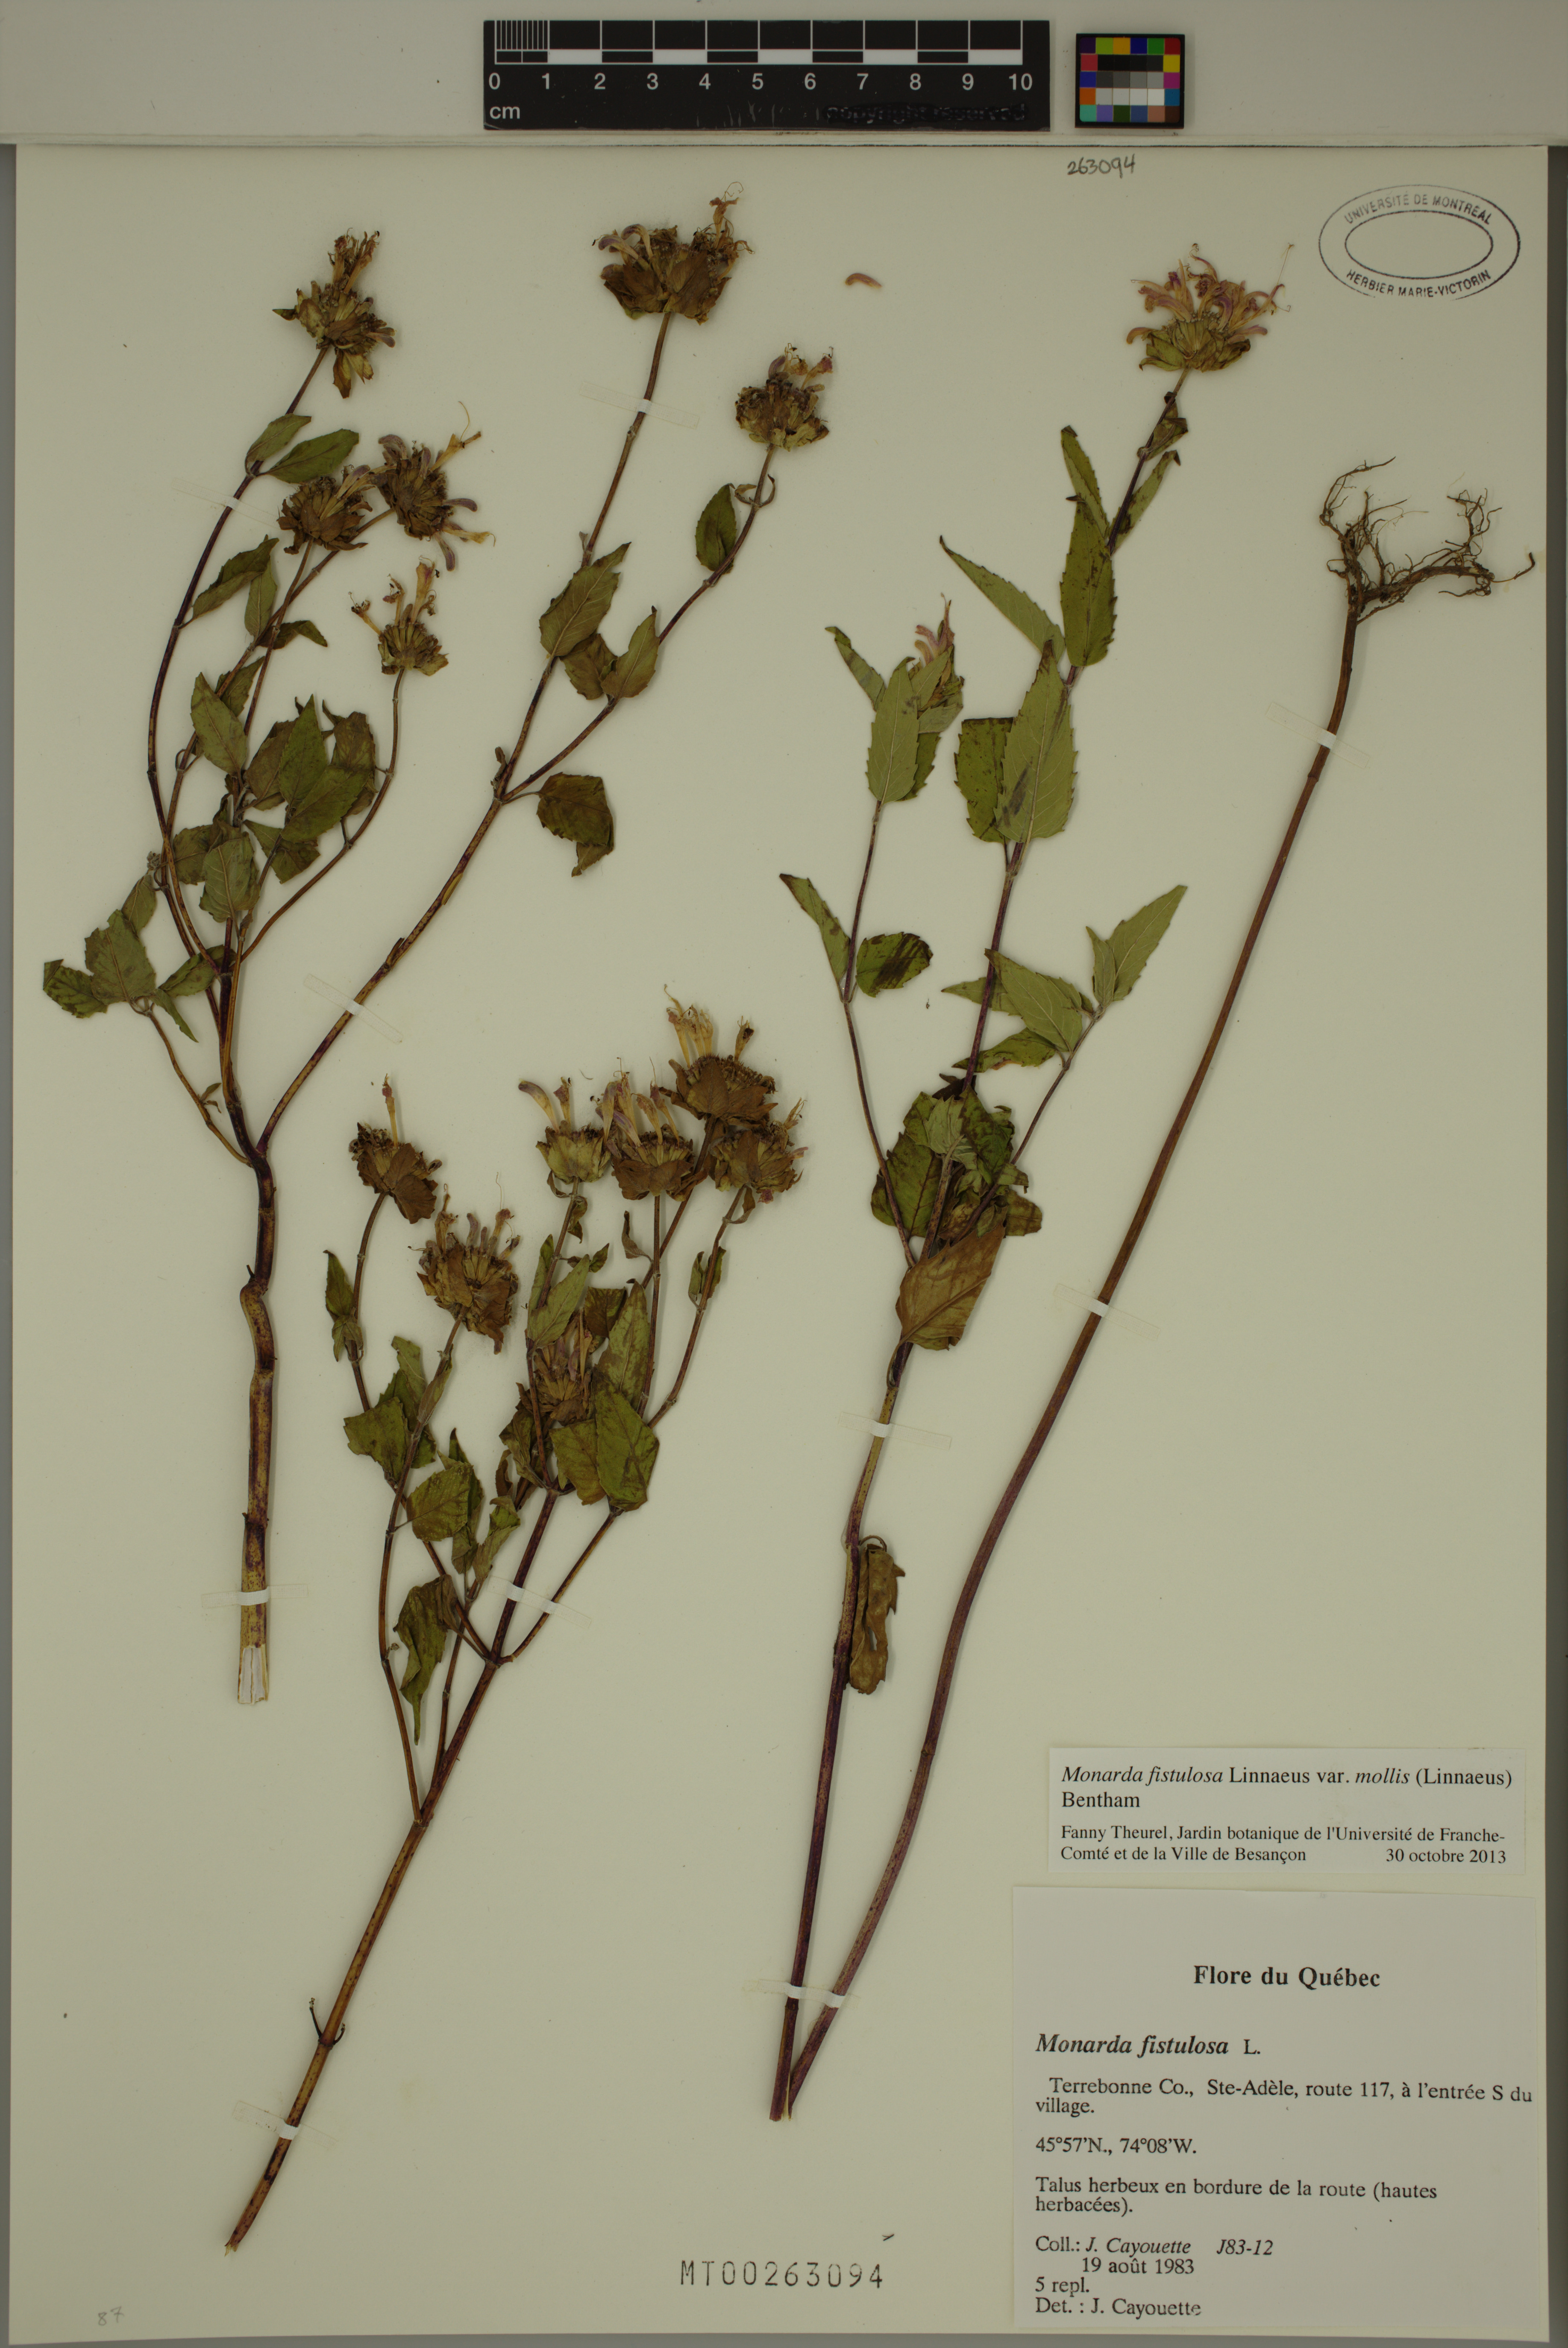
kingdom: Plantae
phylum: Tracheophyta
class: Magnoliopsida
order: Lamiales
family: Lamiaceae
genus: Monarda
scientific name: Monarda fistulosa
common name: Purple beebalm
